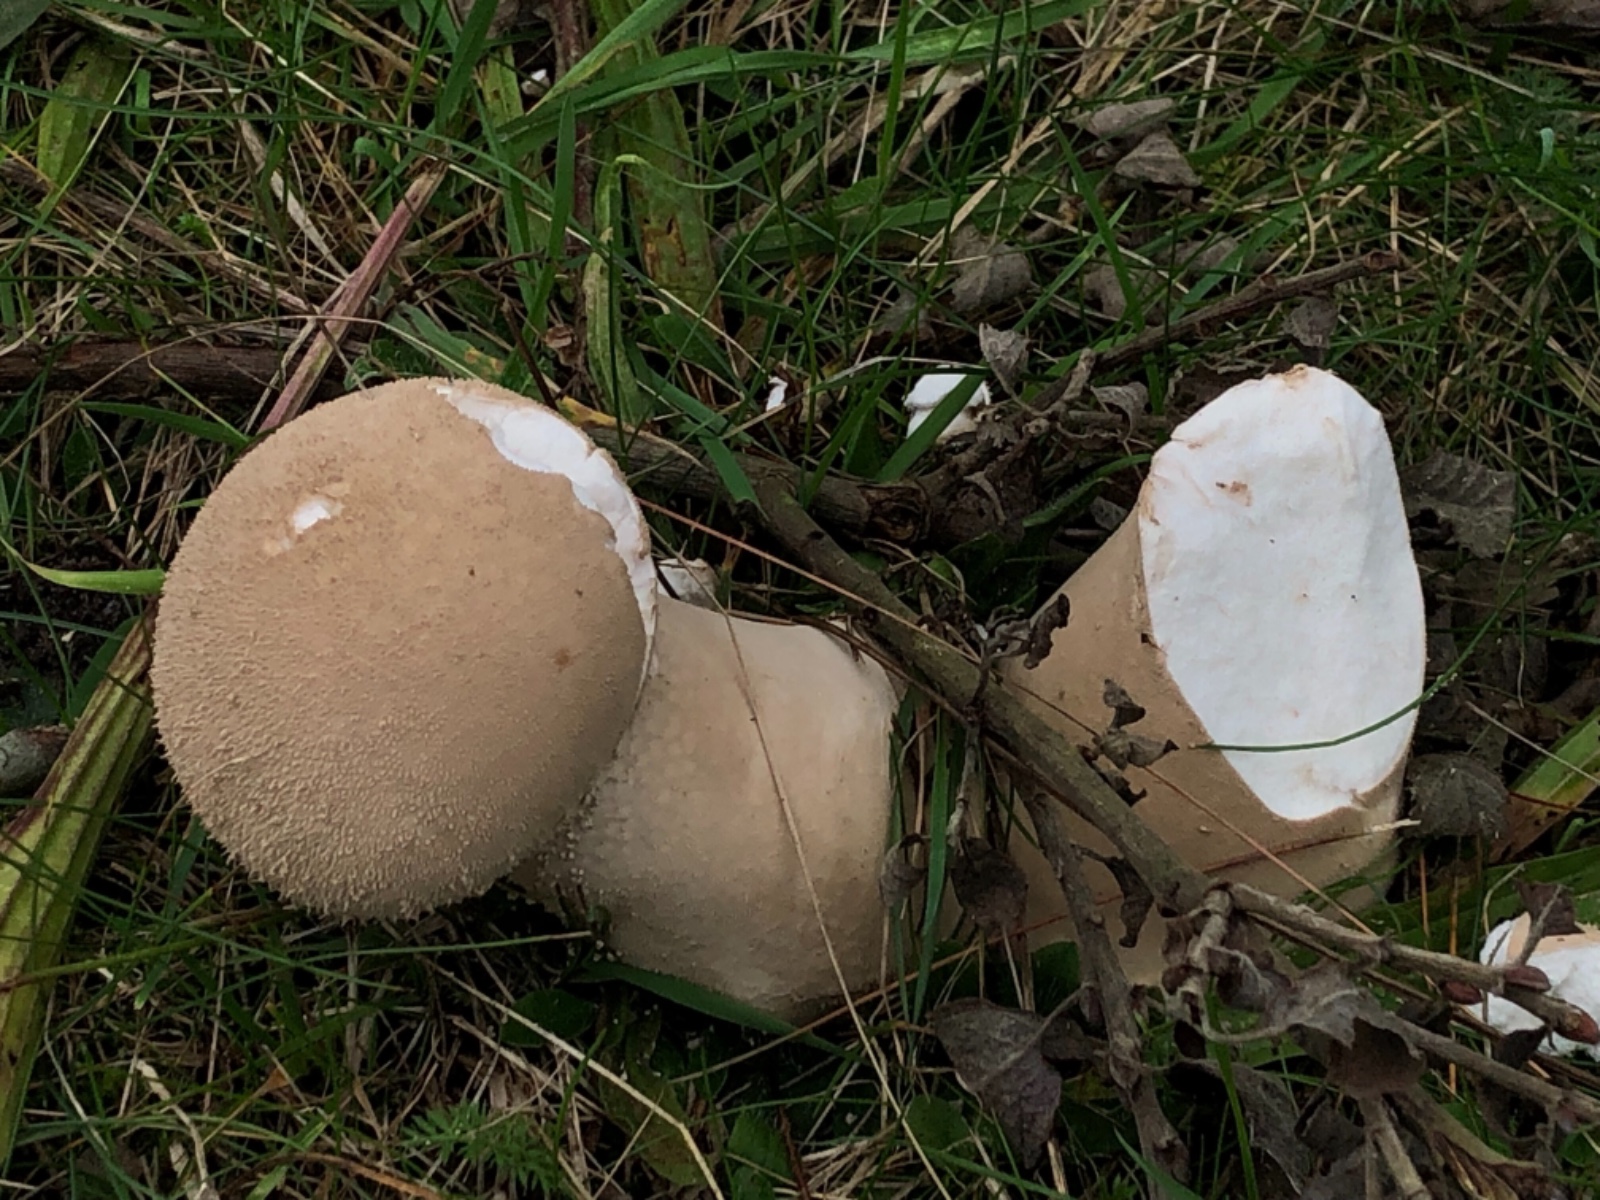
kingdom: Fungi
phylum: Basidiomycota
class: Agaricomycetes
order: Agaricales
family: Lycoperdaceae
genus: Lycoperdon
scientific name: Lycoperdon excipuliforme
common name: højstokket støvbold
